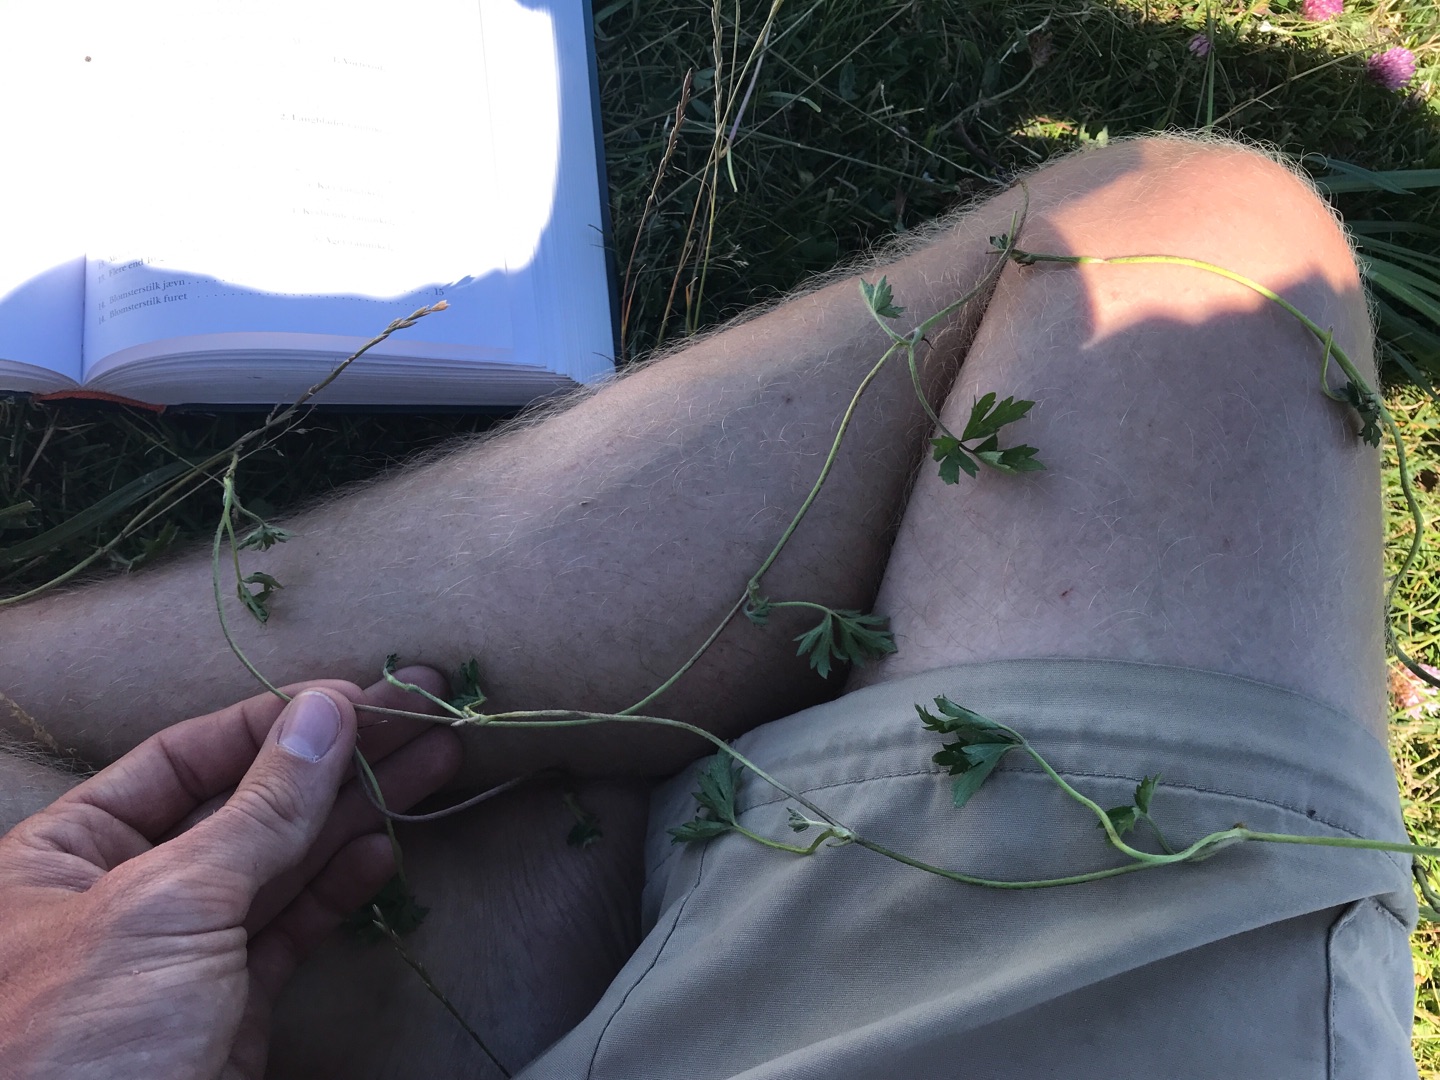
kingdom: Plantae
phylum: Tracheophyta
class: Magnoliopsida
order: Ranunculales
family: Ranunculaceae
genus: Ranunculus
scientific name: Ranunculus repens
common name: Lav ranunkel
